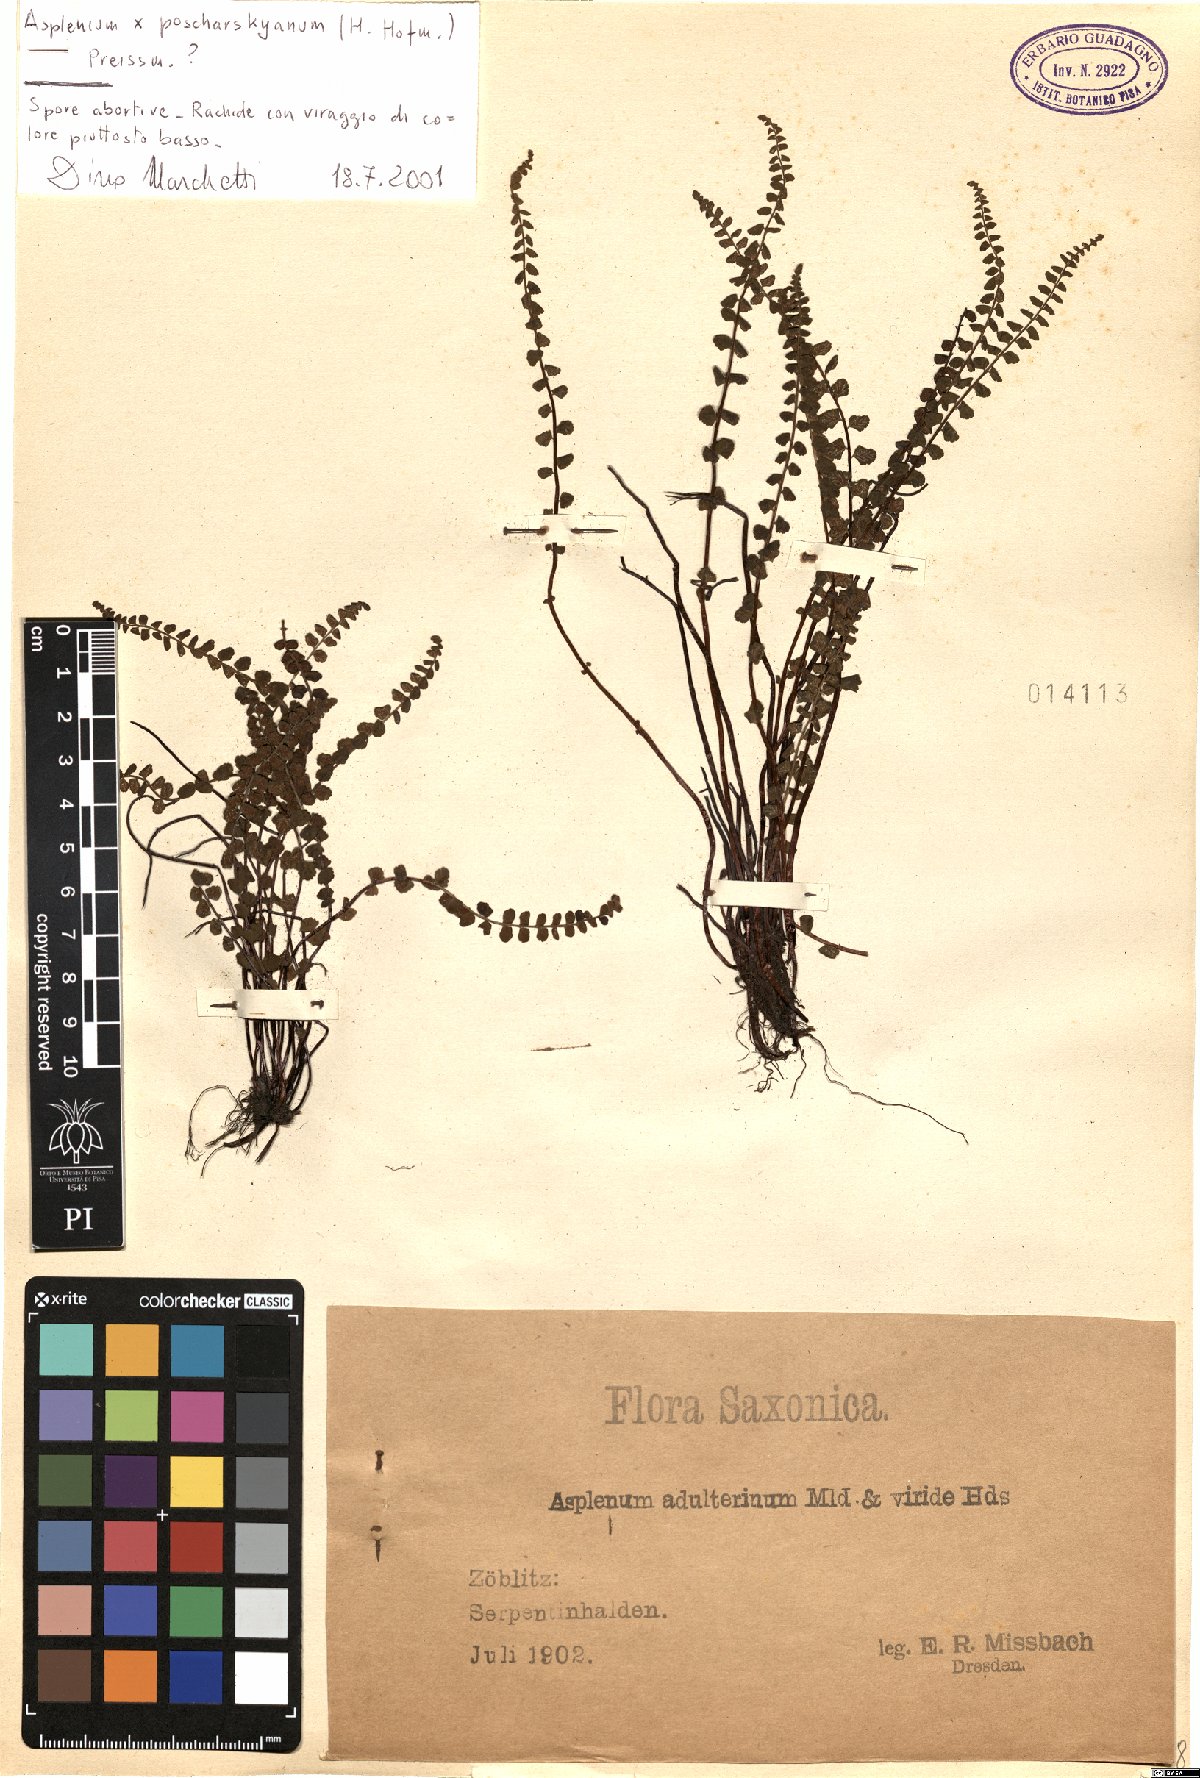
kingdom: Plantae
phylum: Tracheophyta
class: Polypodiopsida
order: Polypodiales
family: Aspleniaceae
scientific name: Aspleniaceae
